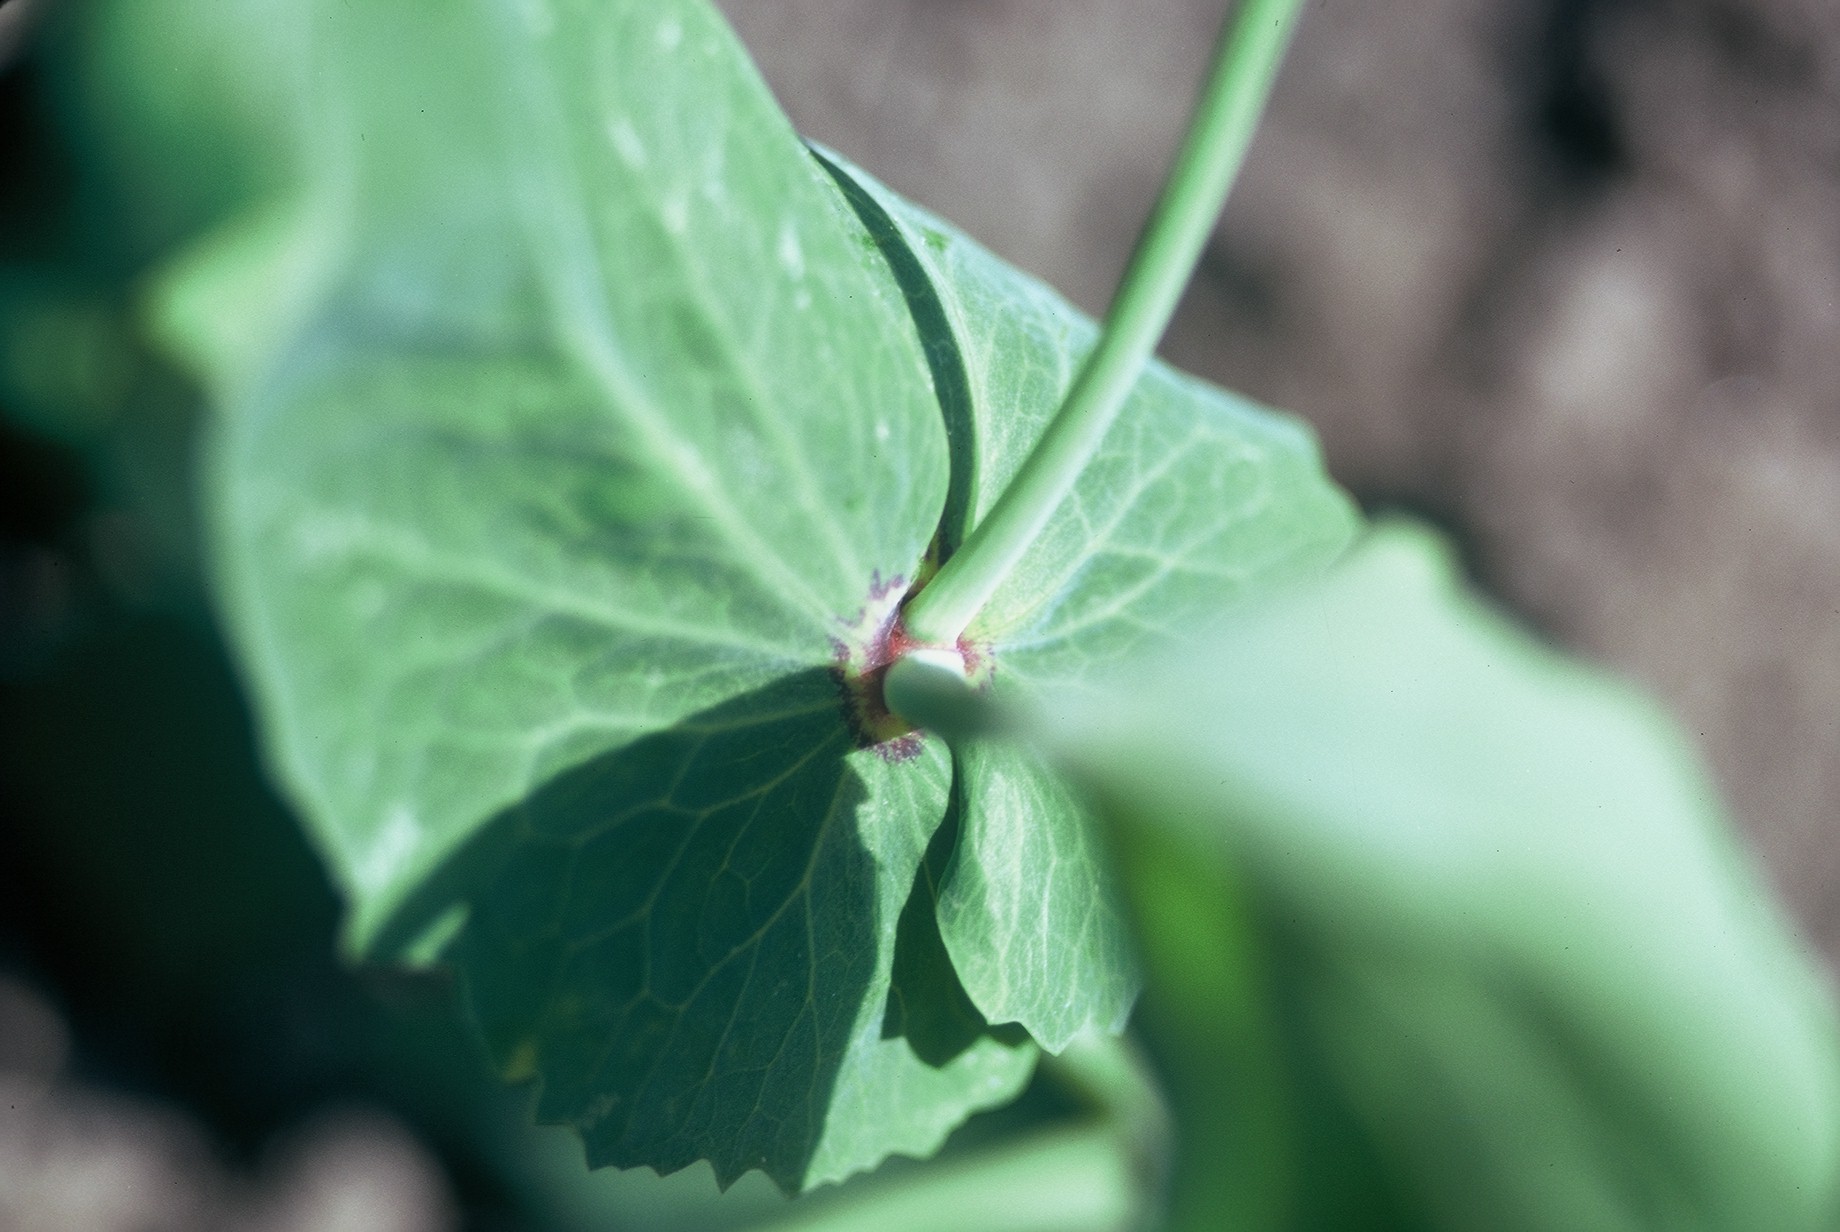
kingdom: Plantae
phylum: Tracheophyta
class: Magnoliopsida
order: Fabales
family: Fabaceae
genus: Lathyrus
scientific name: Lathyrus oleraceus
